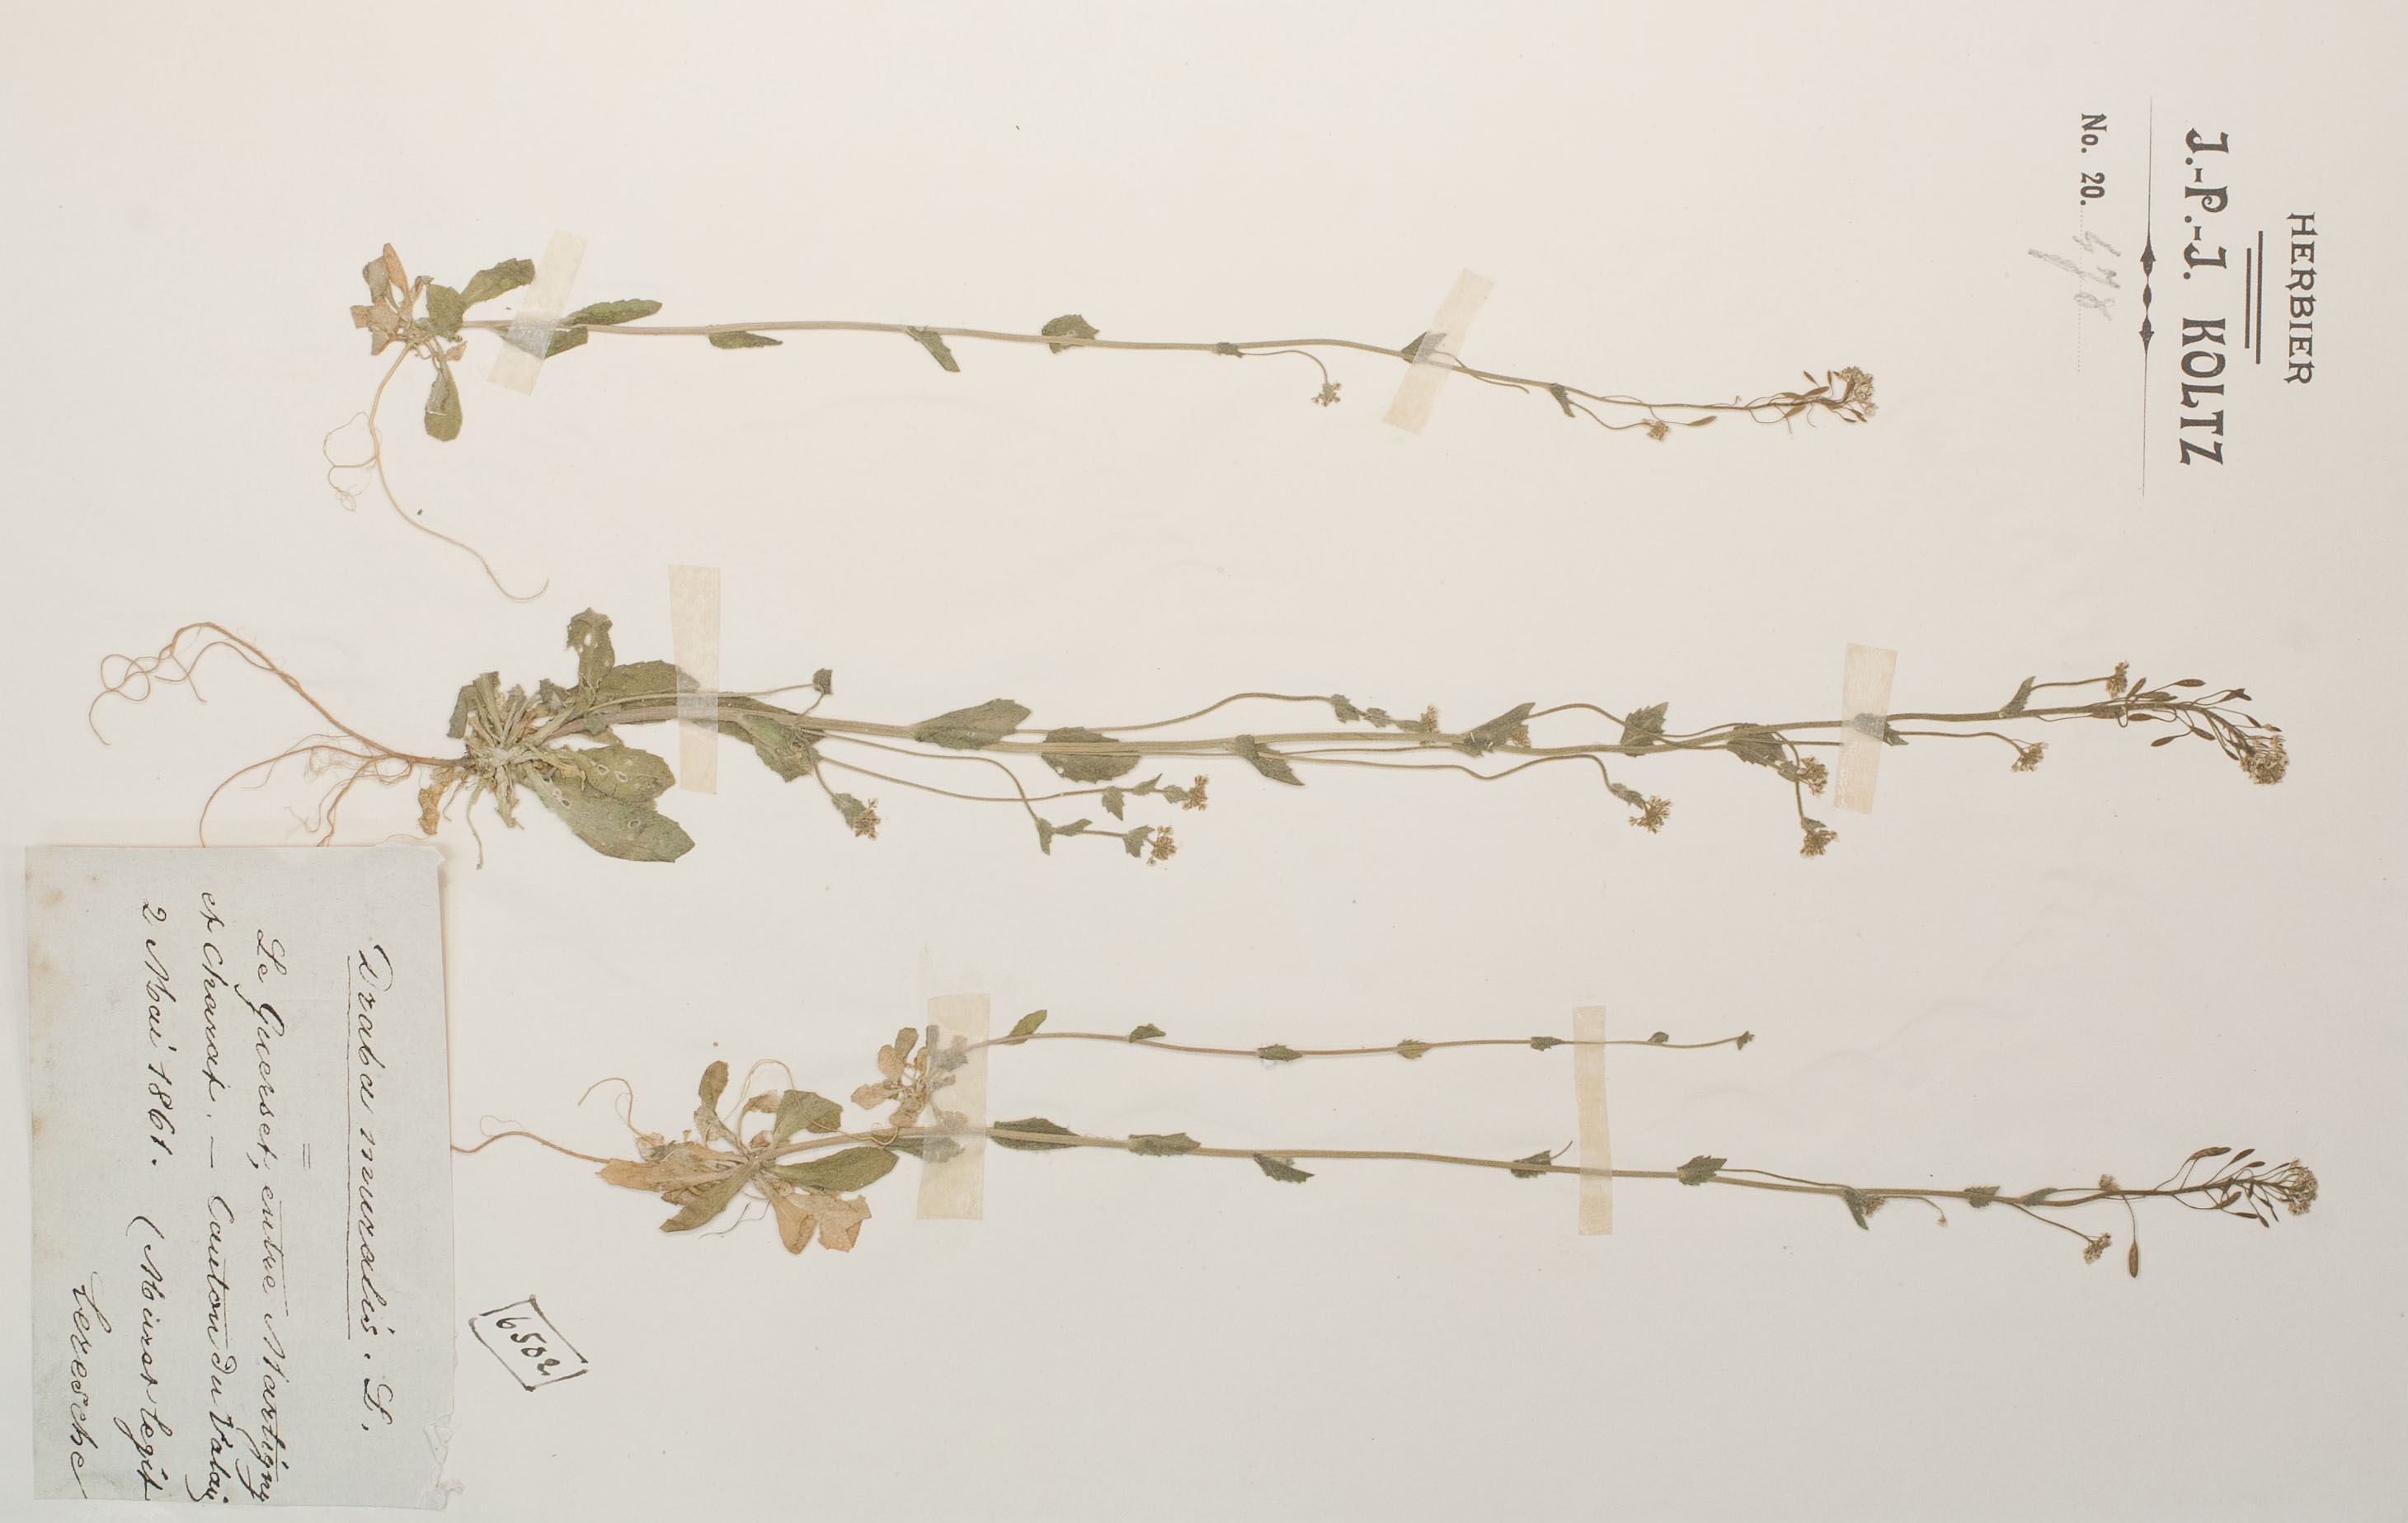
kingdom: Plantae
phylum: Tracheophyta
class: Magnoliopsida
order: Brassicales
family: Brassicaceae
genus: Drabella
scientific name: Drabella muralis
